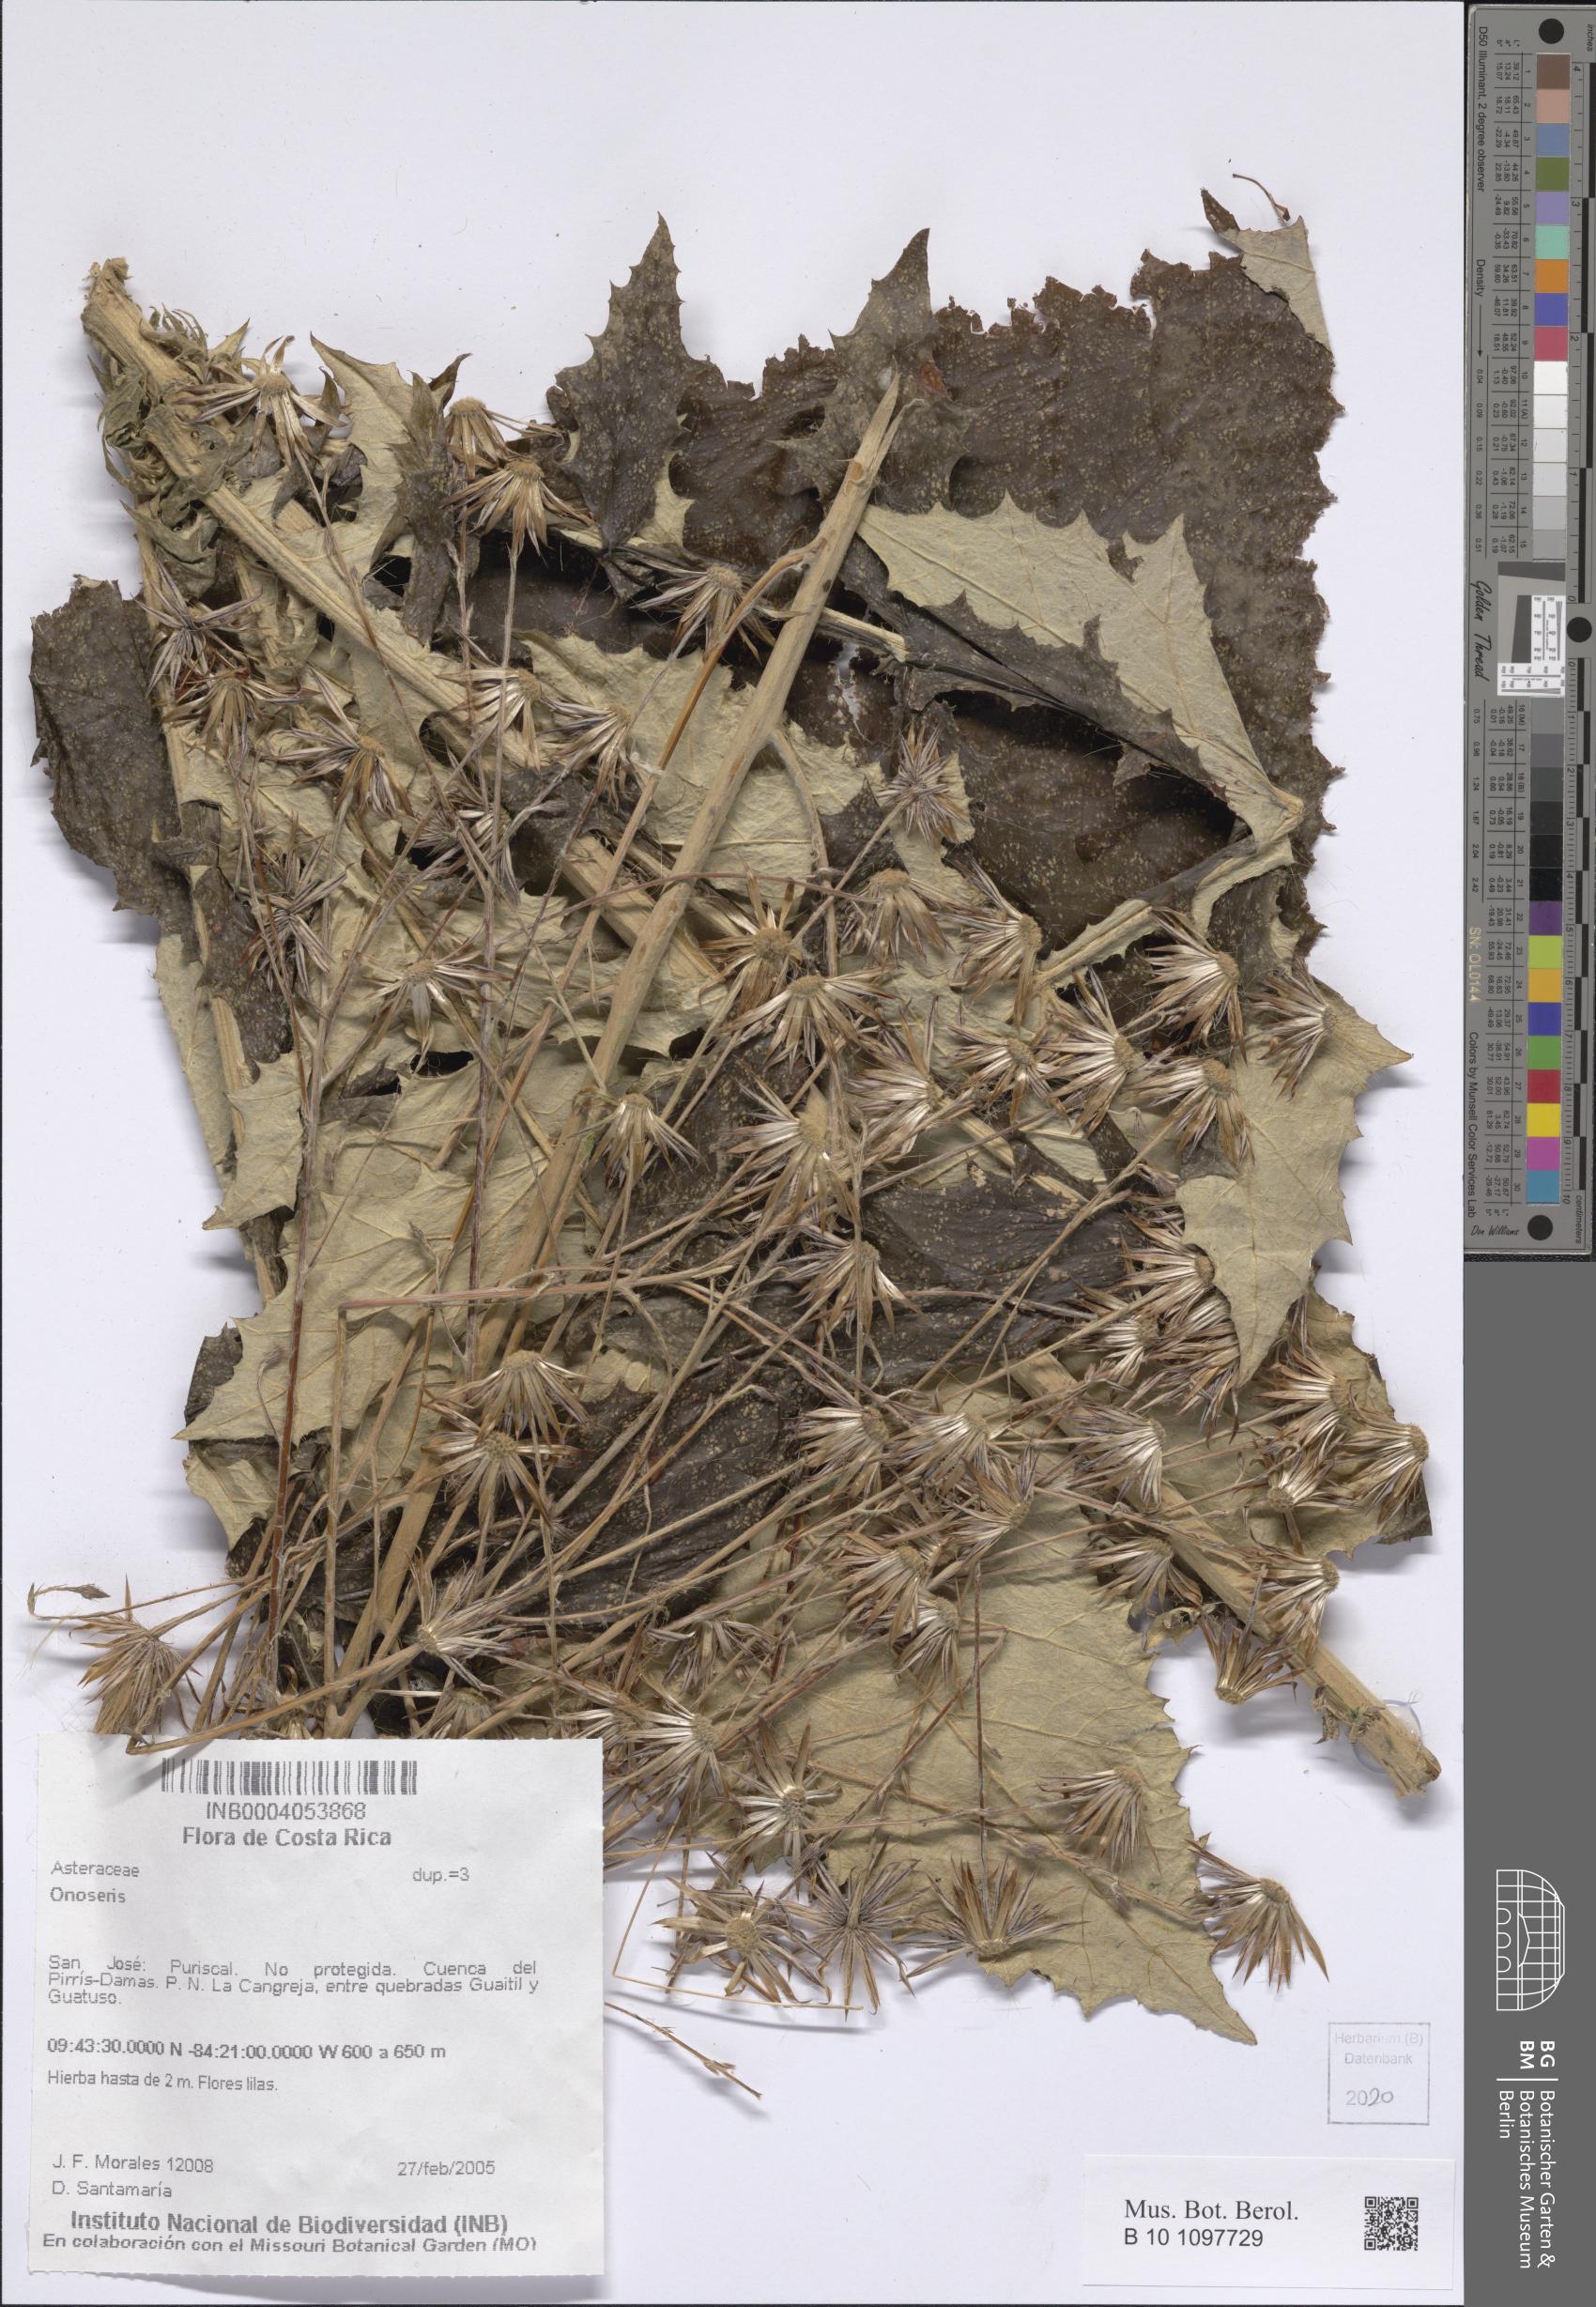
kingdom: Plantae
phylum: Tracheophyta
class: Magnoliopsida
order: Asterales
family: Asteraceae
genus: Onoseris
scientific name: Onoseris
